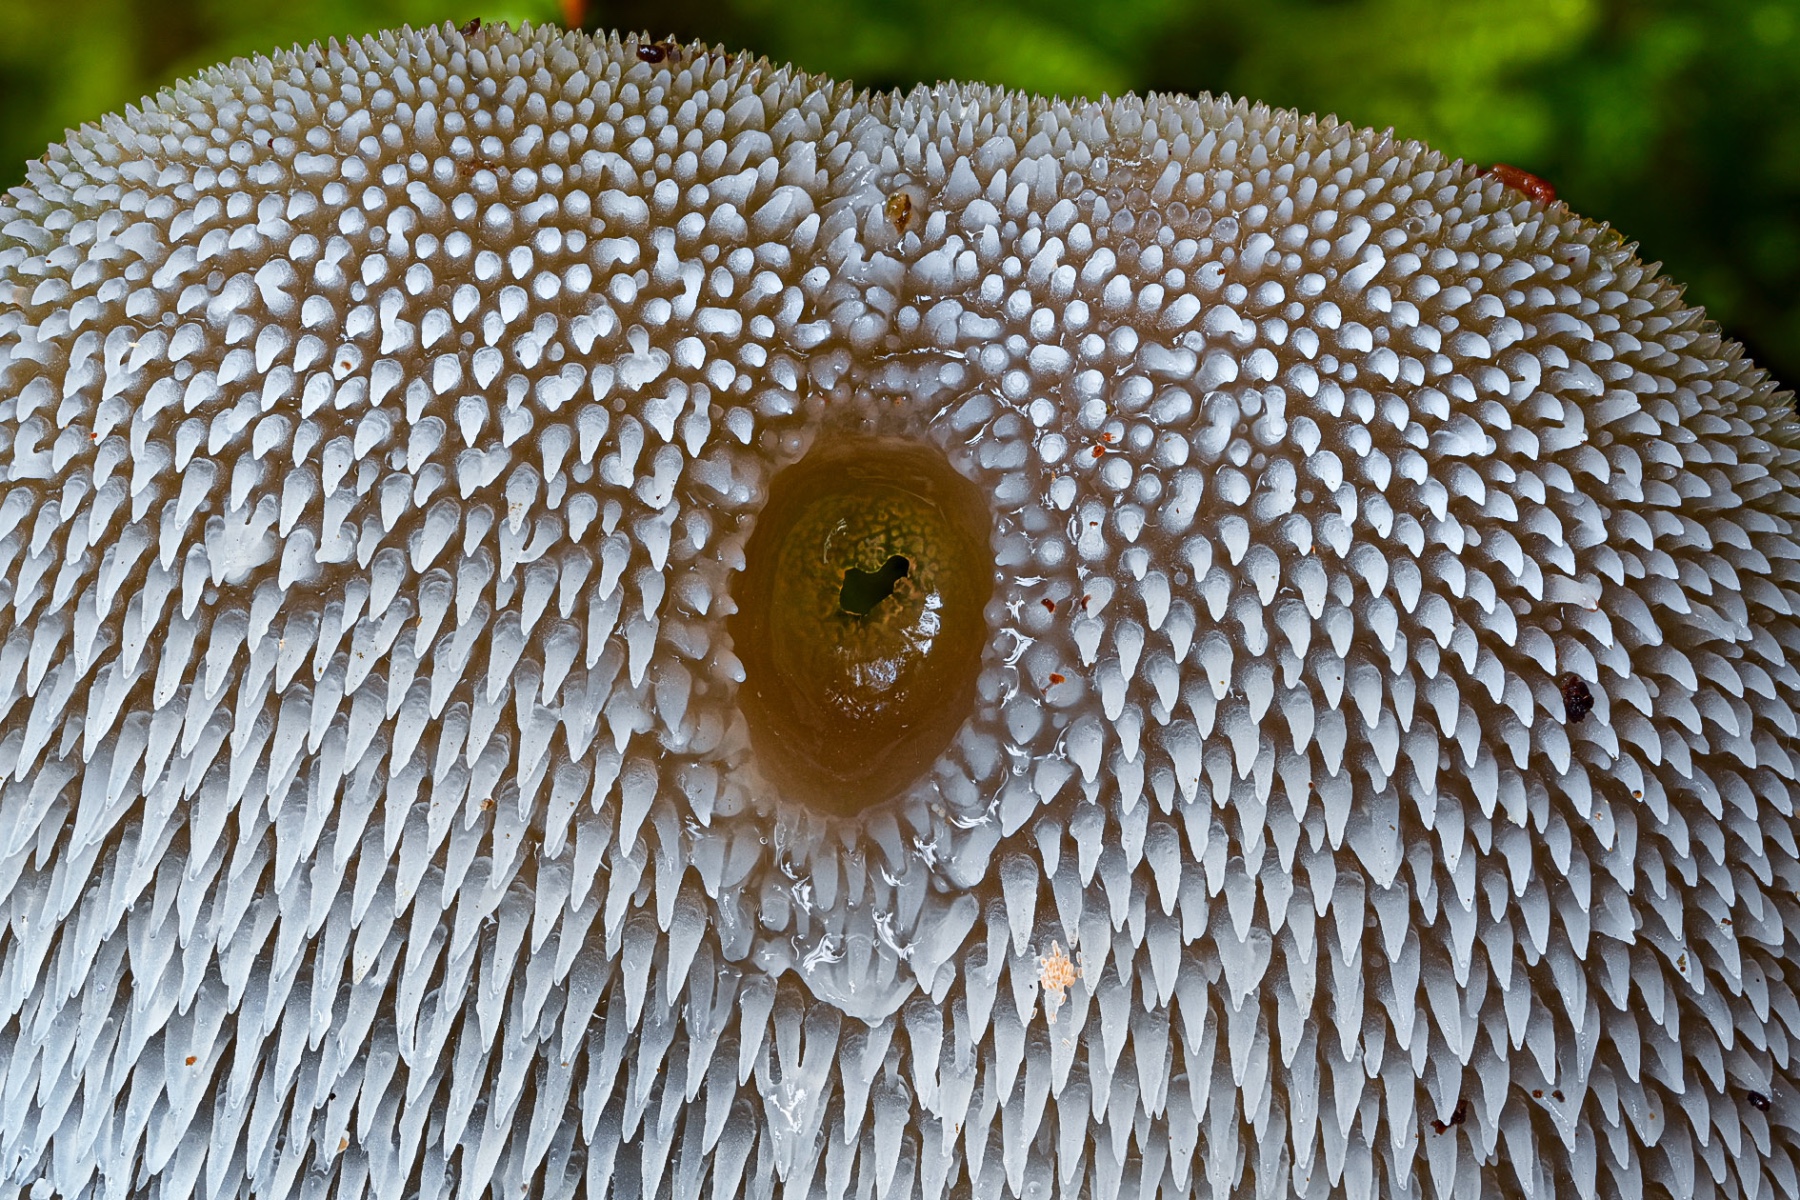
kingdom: Fungi
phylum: Basidiomycota
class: Agaricomycetes
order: Auriculariales
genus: Pseudohydnum
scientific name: Pseudohydnum gelatinosum
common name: bævretand
